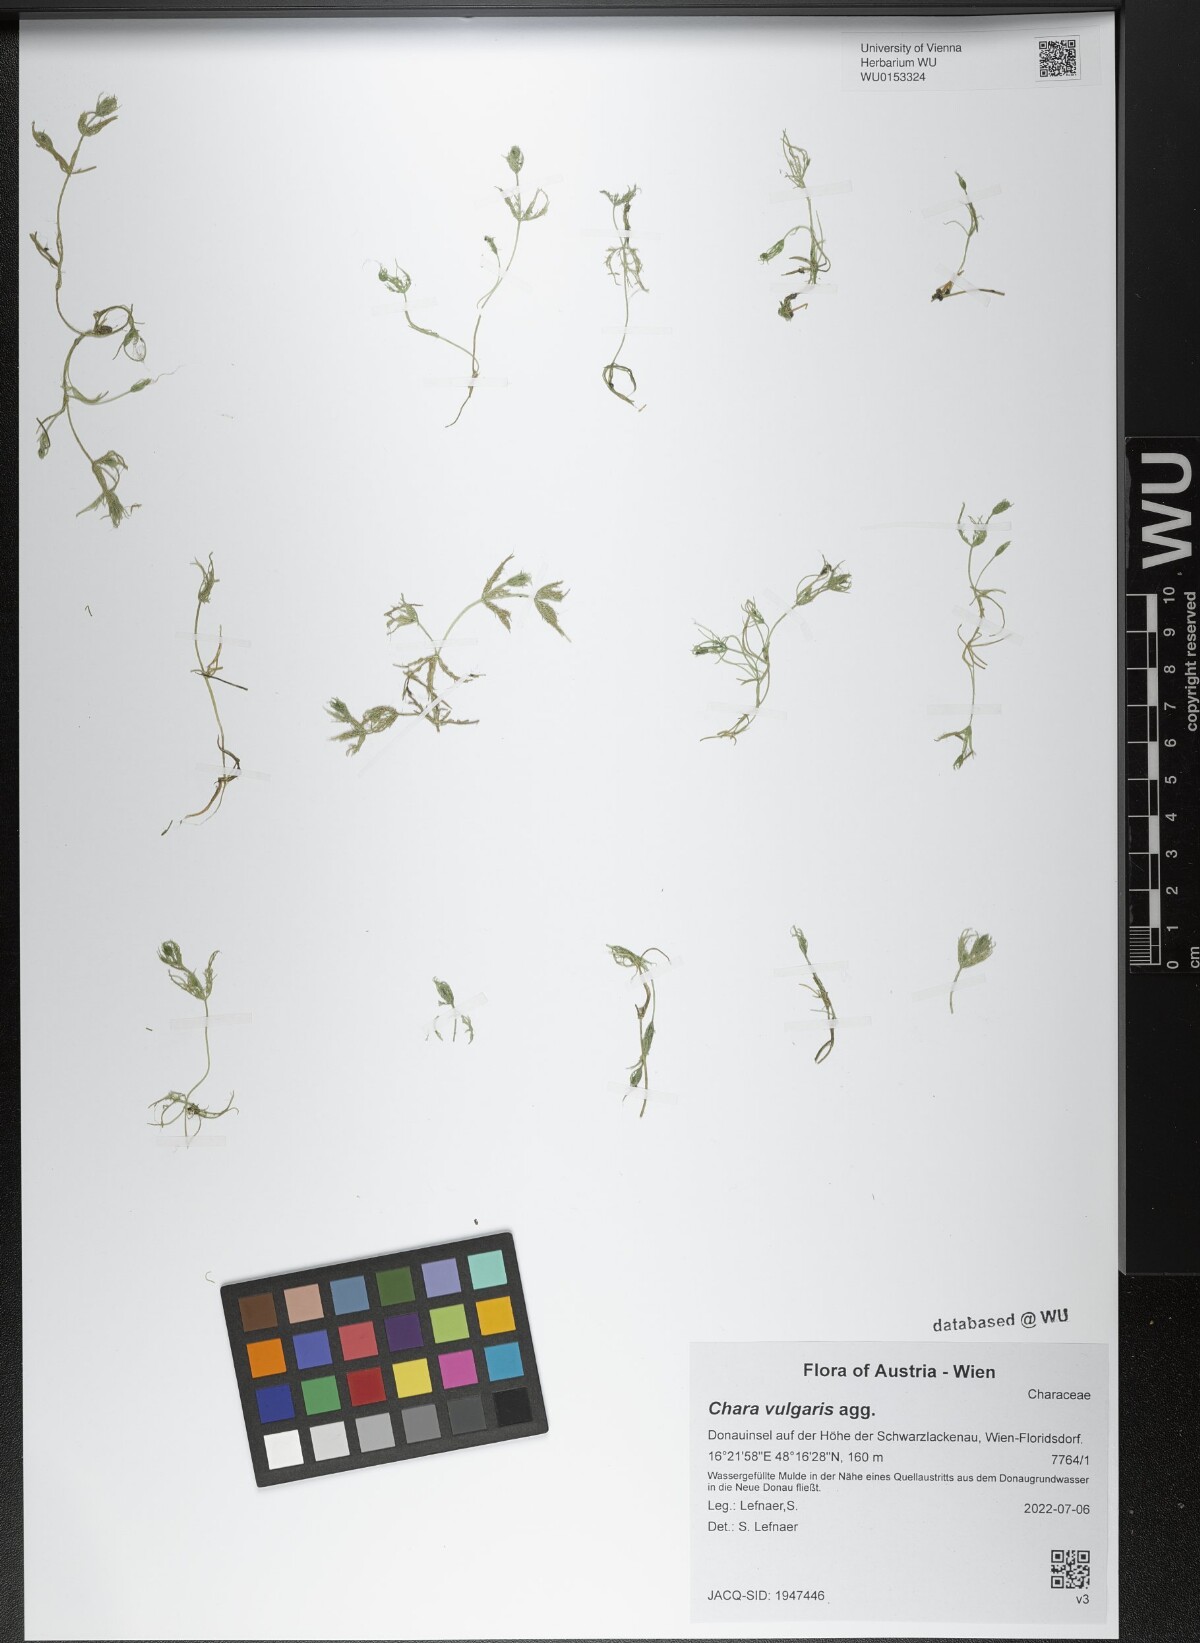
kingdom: Plantae
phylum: Charophyta
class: Charophyceae
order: Charales
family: Characeae
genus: Chara
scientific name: Chara vulgaris
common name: Common stonewort
